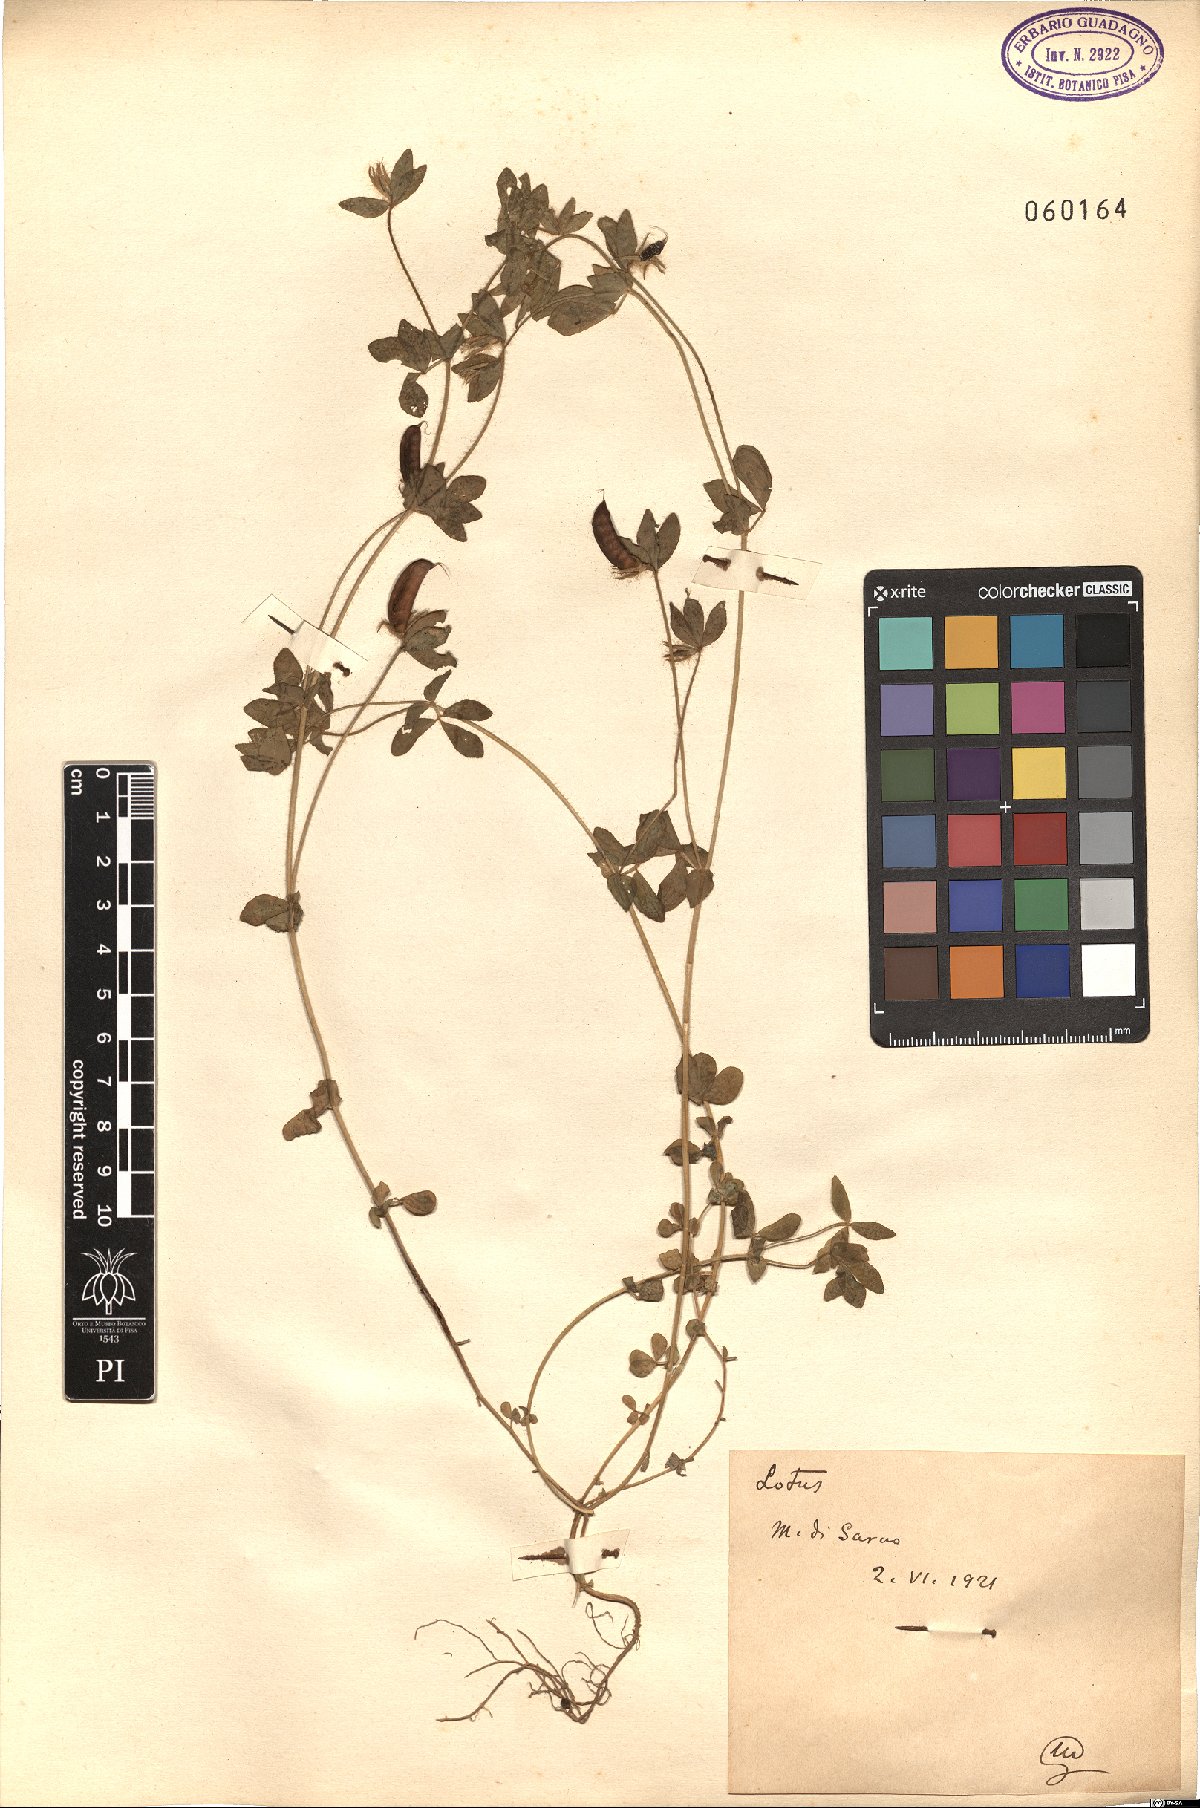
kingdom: Plantae
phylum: Tracheophyta
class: Magnoliopsida
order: Fabales
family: Fabaceae
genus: Lotus
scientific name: Lotus
